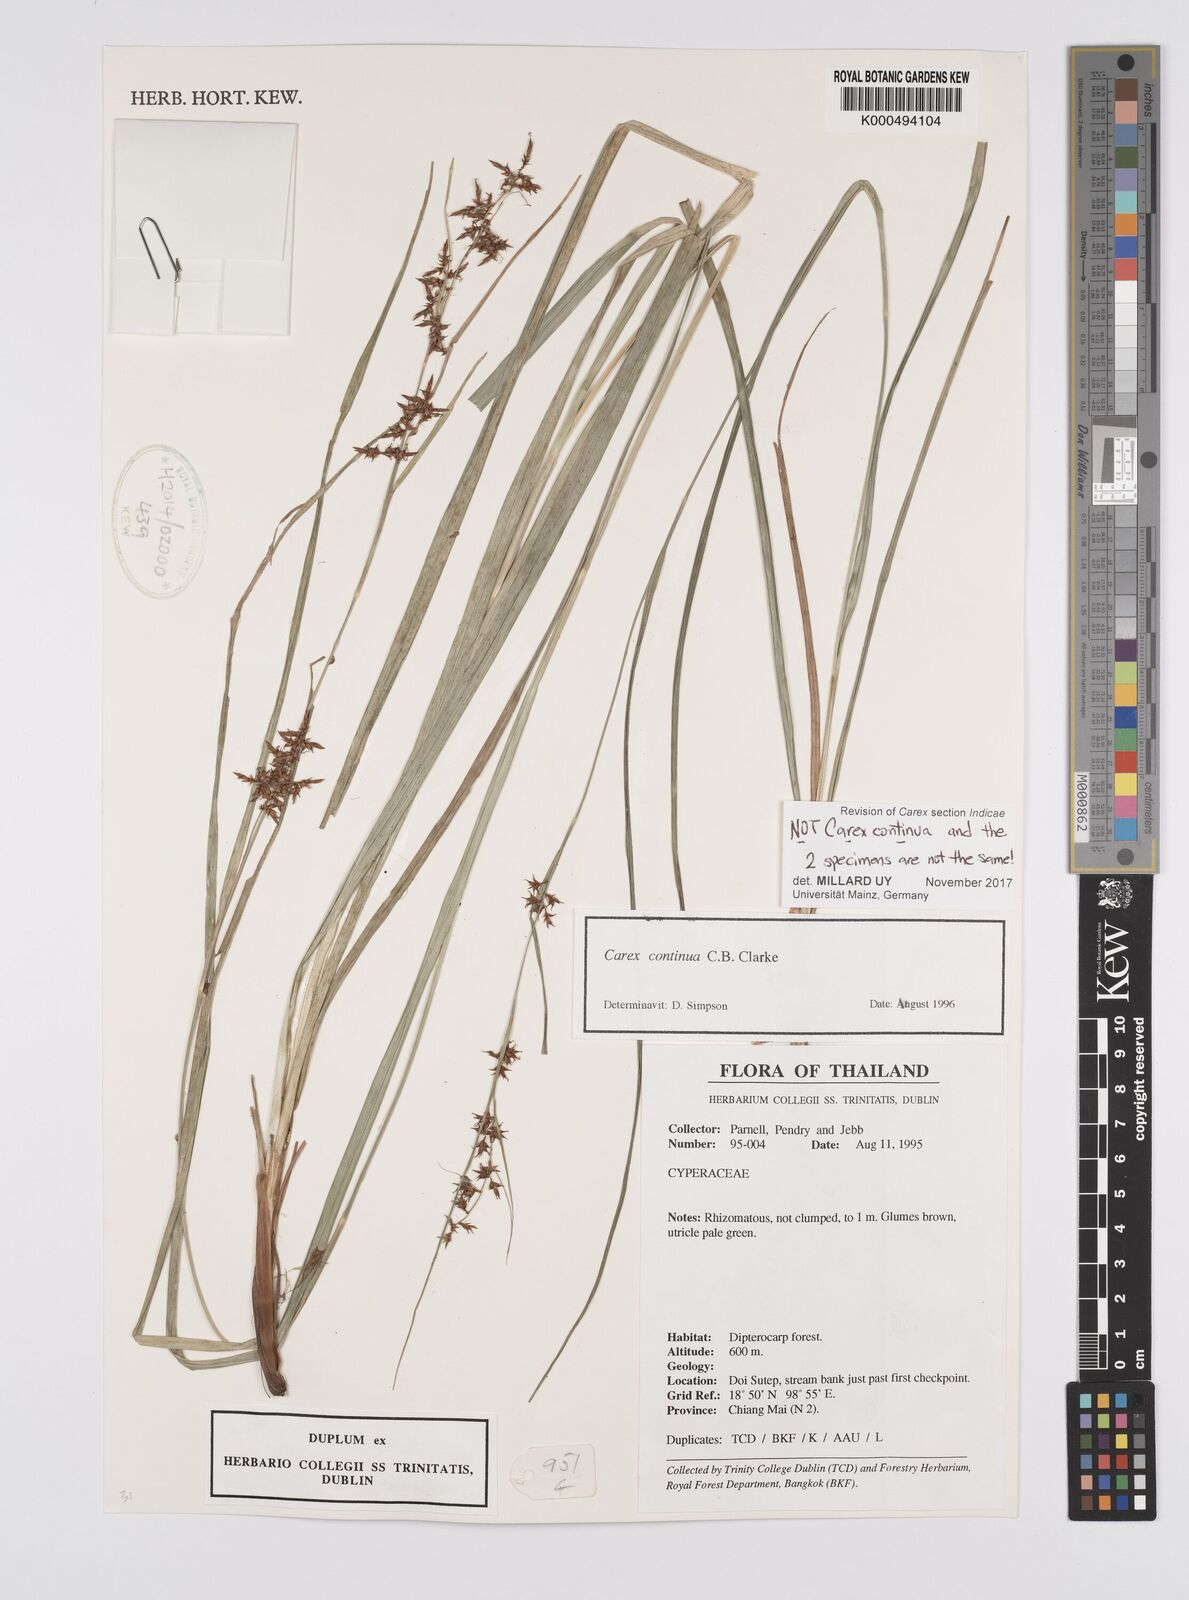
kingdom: Plantae
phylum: Tracheophyta
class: Liliopsida
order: Poales
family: Cyperaceae
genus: Carex
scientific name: Carex
